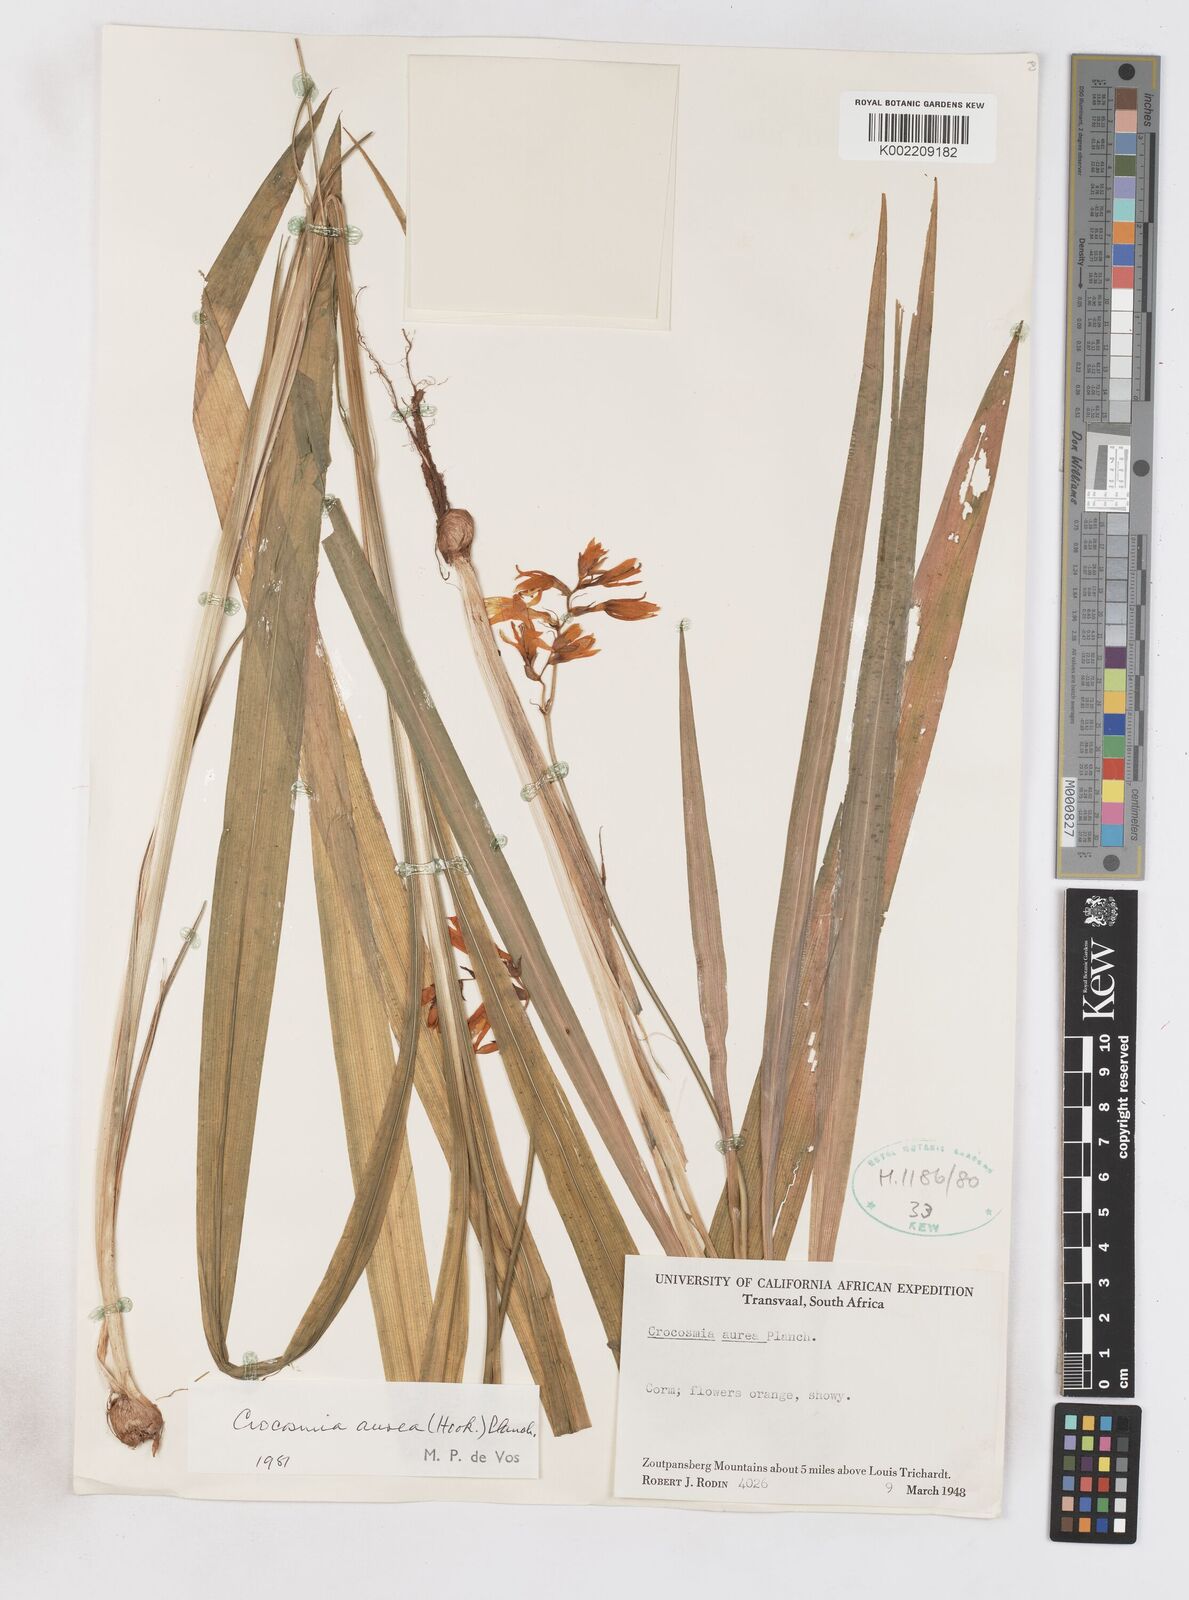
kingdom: Plantae
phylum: Tracheophyta
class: Liliopsida
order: Asparagales
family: Iridaceae
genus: Crocosmia
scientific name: Crocosmia aurea
